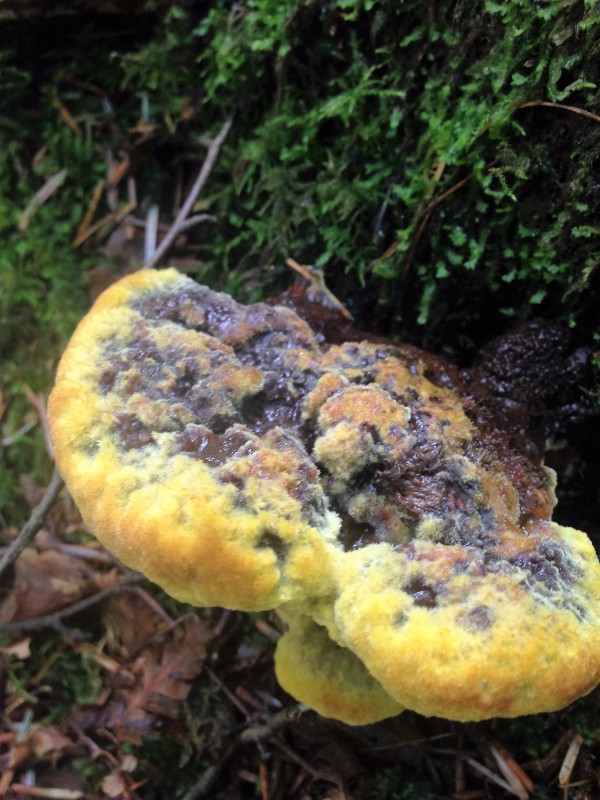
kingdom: Fungi
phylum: Basidiomycota
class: Agaricomycetes
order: Polyporales
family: Laetiporaceae
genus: Phaeolus
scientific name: Phaeolus schweinitzii
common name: brunporesvamp
